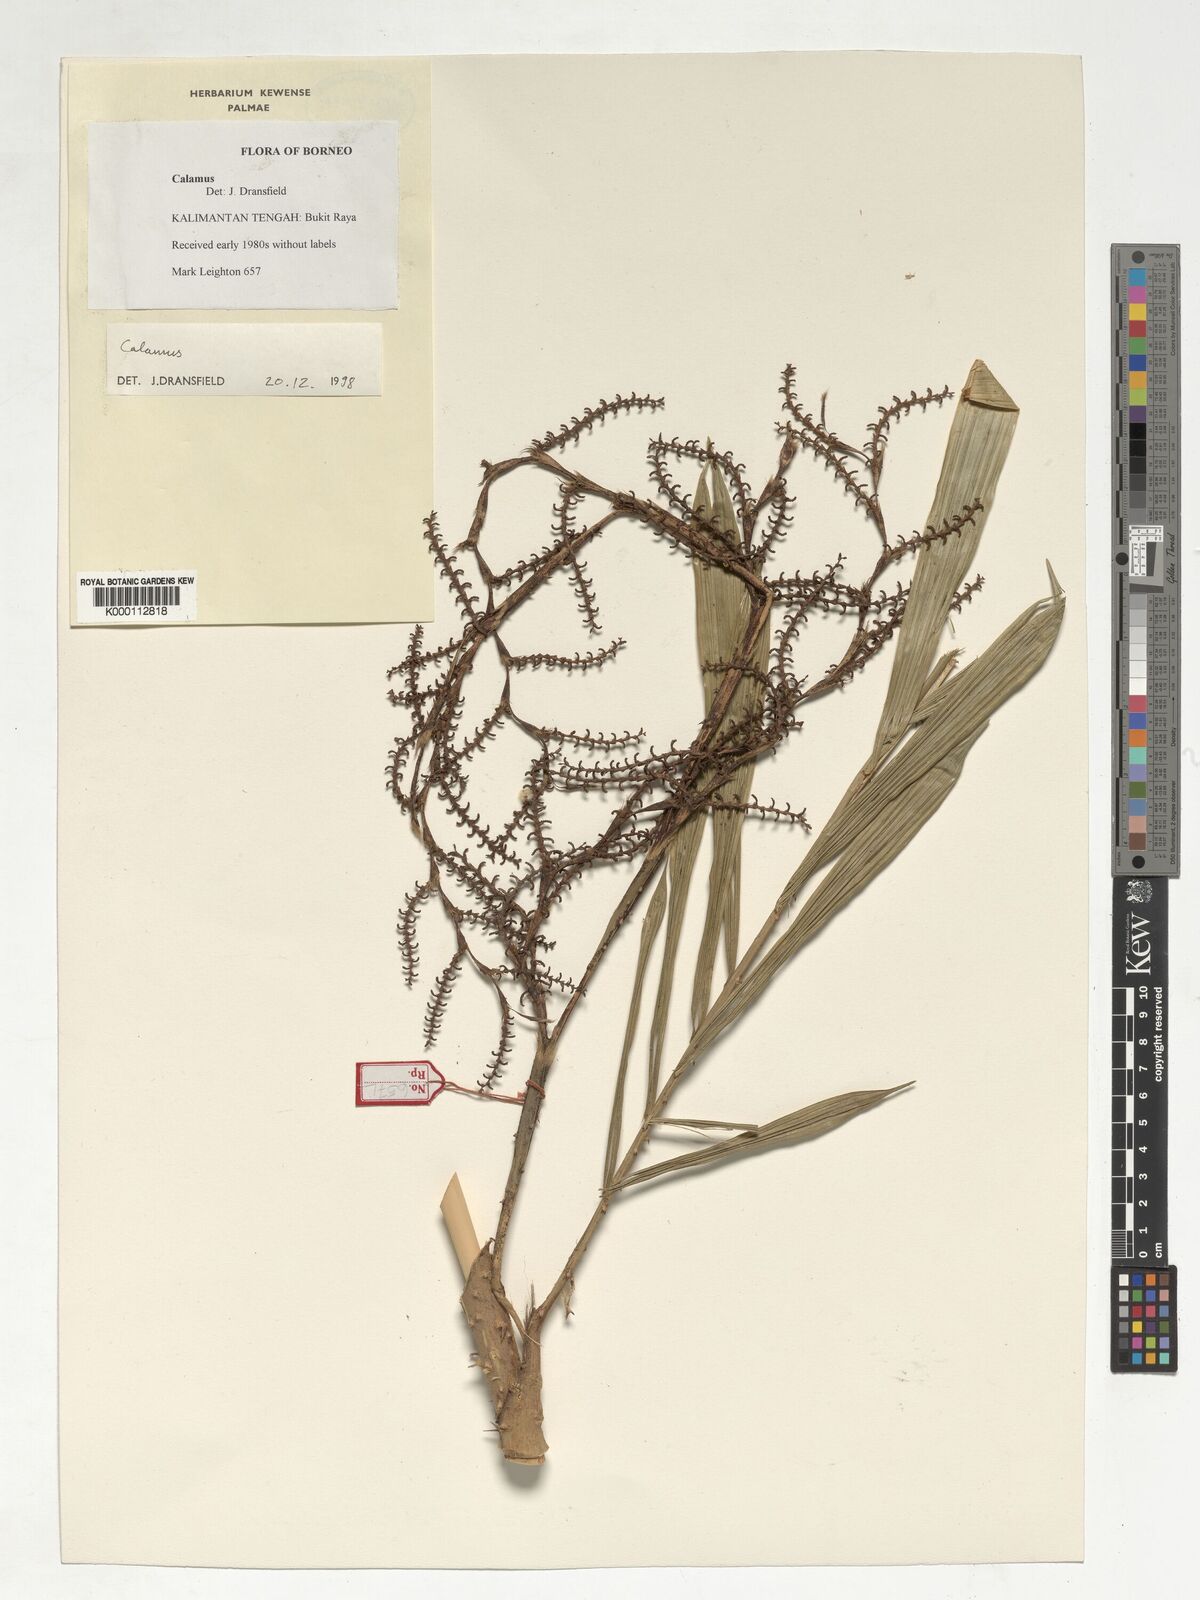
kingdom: Plantae
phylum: Tracheophyta
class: Liliopsida
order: Arecales
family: Arecaceae
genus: Calamus
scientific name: Calamus plicatus
